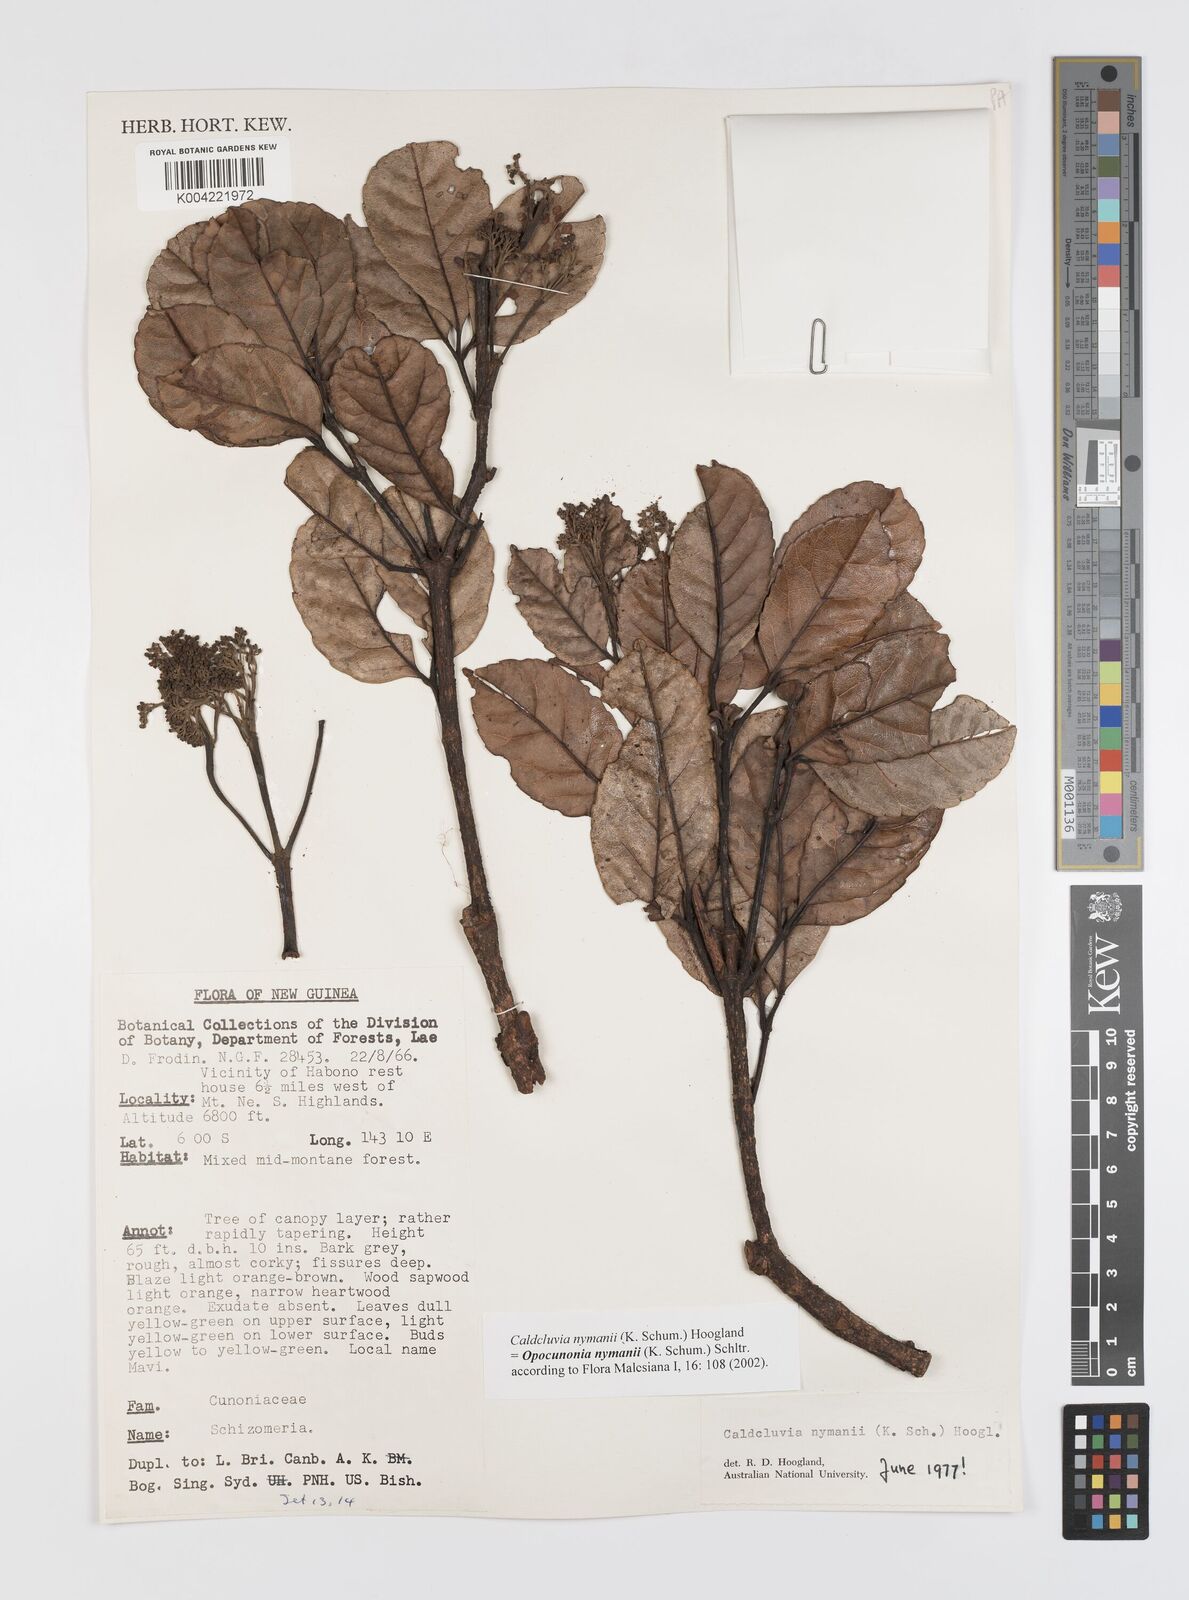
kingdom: Plantae
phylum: Tracheophyta
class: Magnoliopsida
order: Oxalidales
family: Cunoniaceae
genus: Opocunonia
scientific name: Opocunonia nymanii
